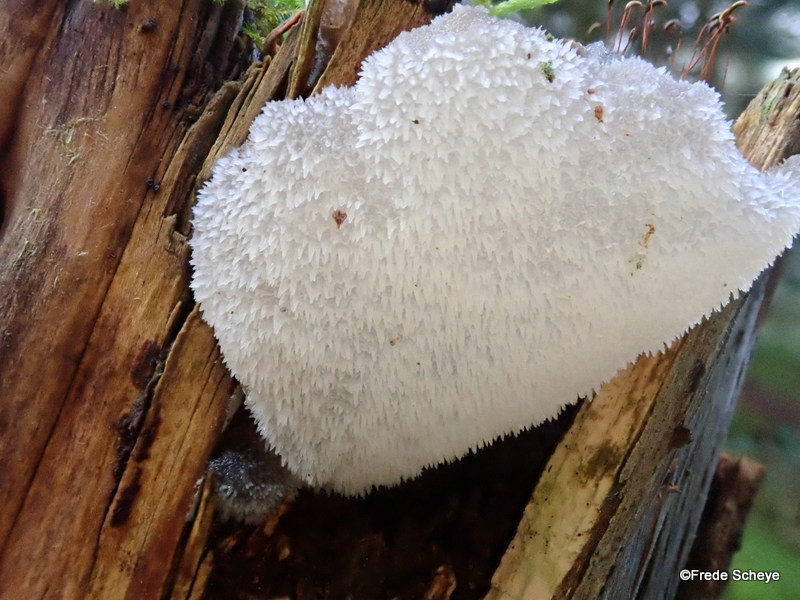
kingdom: Fungi
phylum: Basidiomycota
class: Agaricomycetes
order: Auriculariales
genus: Pseudohydnum
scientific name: Pseudohydnum gelatinosum
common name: bævretand
